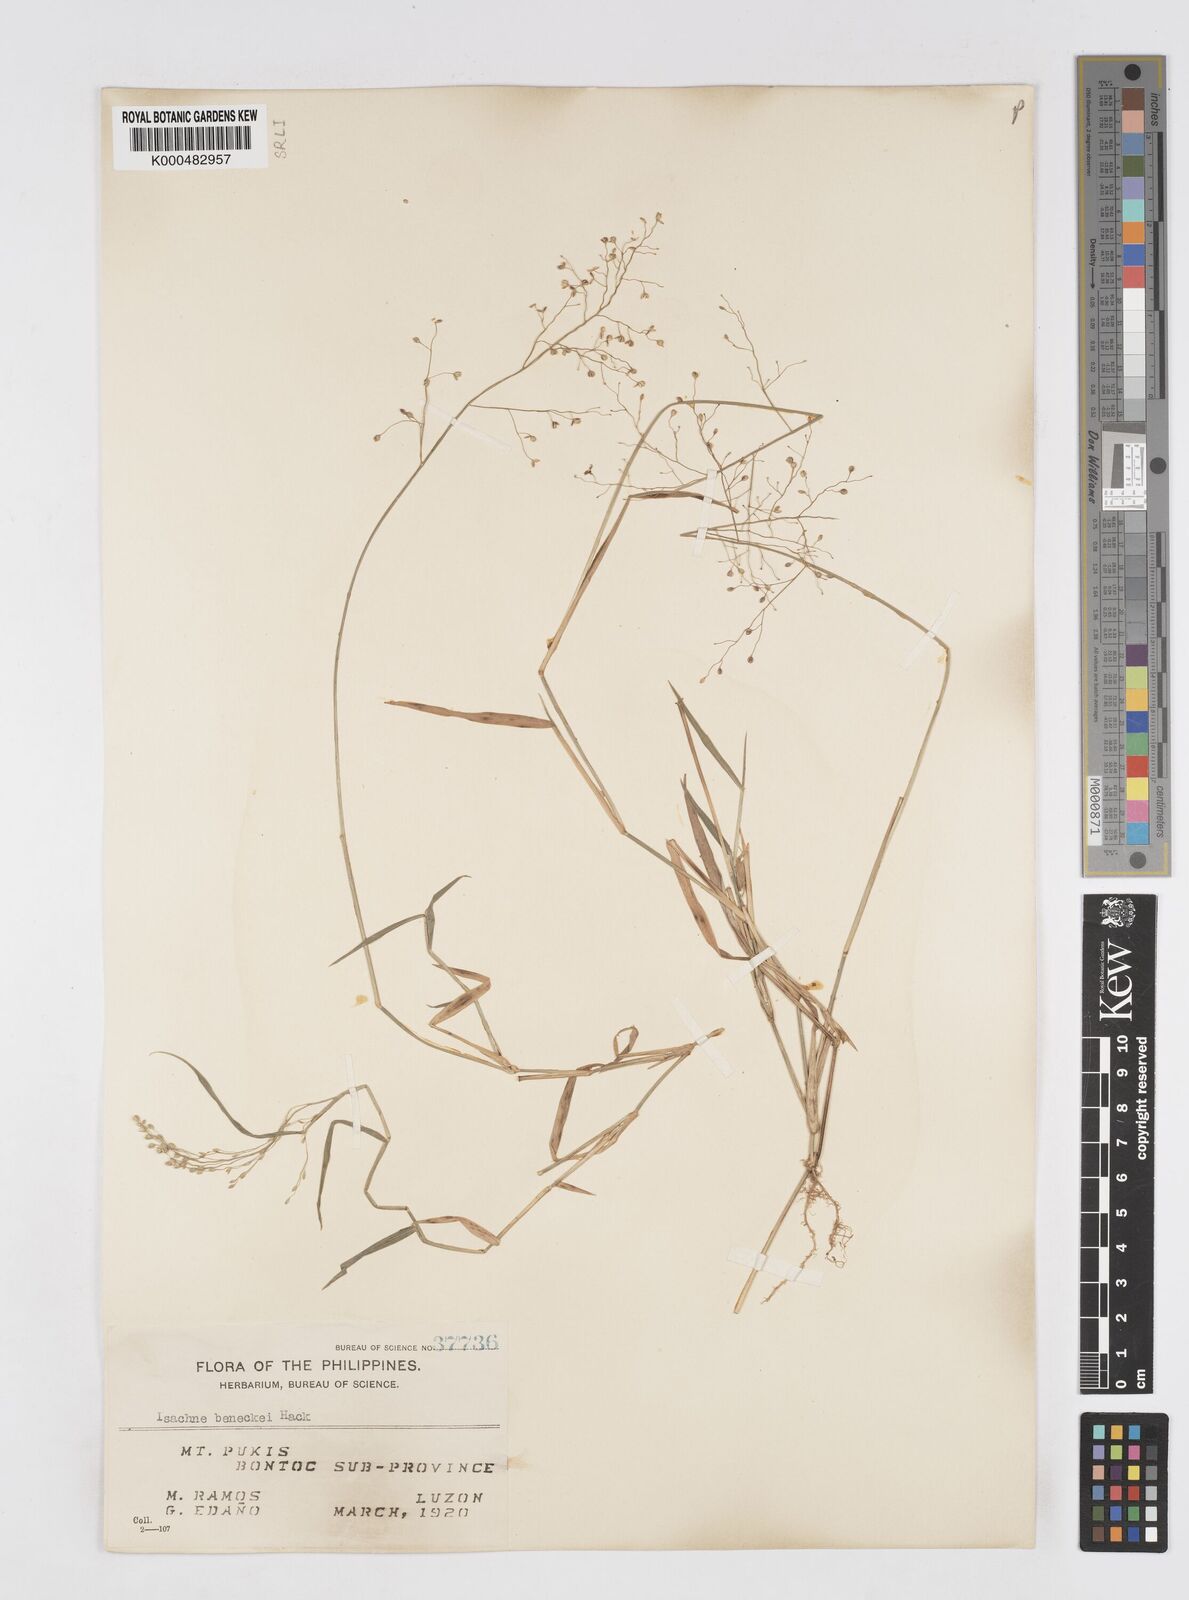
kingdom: Plantae
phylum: Tracheophyta
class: Liliopsida
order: Poales
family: Poaceae
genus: Isachne
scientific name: Isachne clarkei
